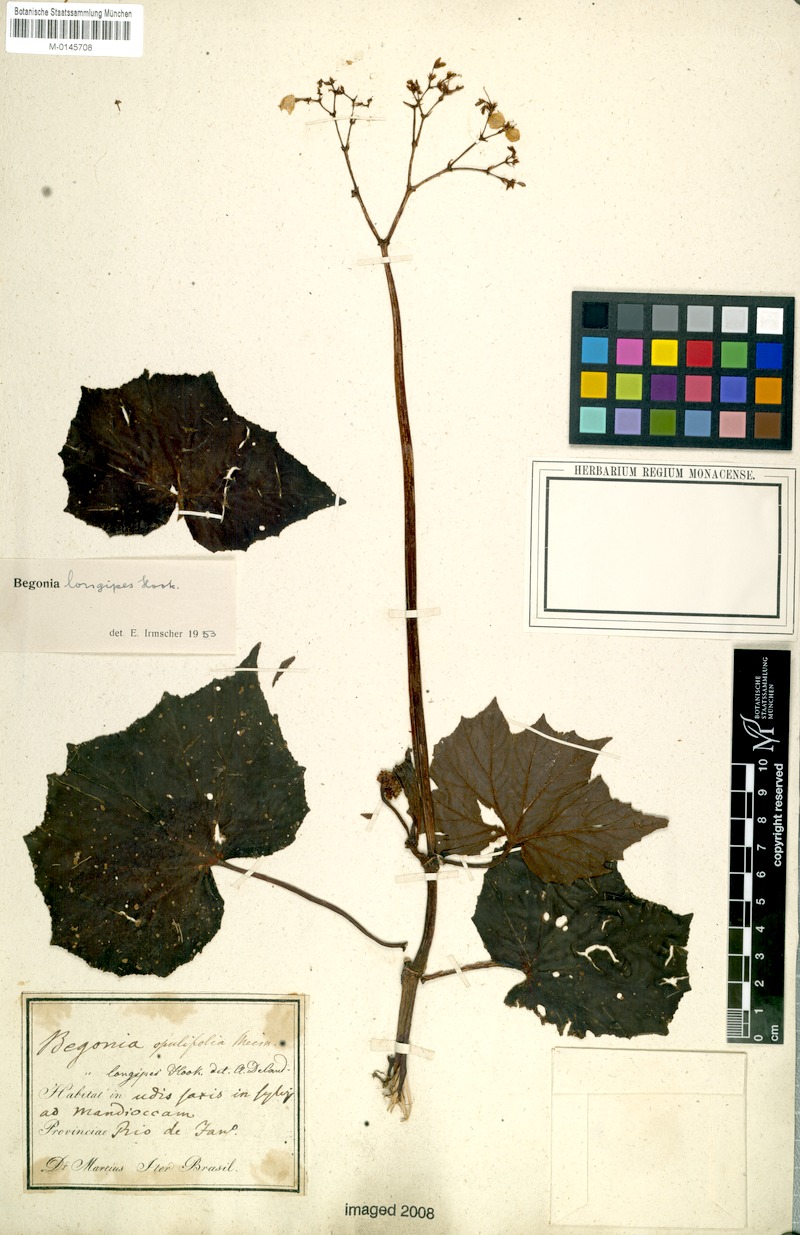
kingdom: Plantae
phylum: Tracheophyta
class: Magnoliopsida
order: Cucurbitales
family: Begoniaceae
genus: Begonia
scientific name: Begonia reniformis
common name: Grapeleaf begonia
